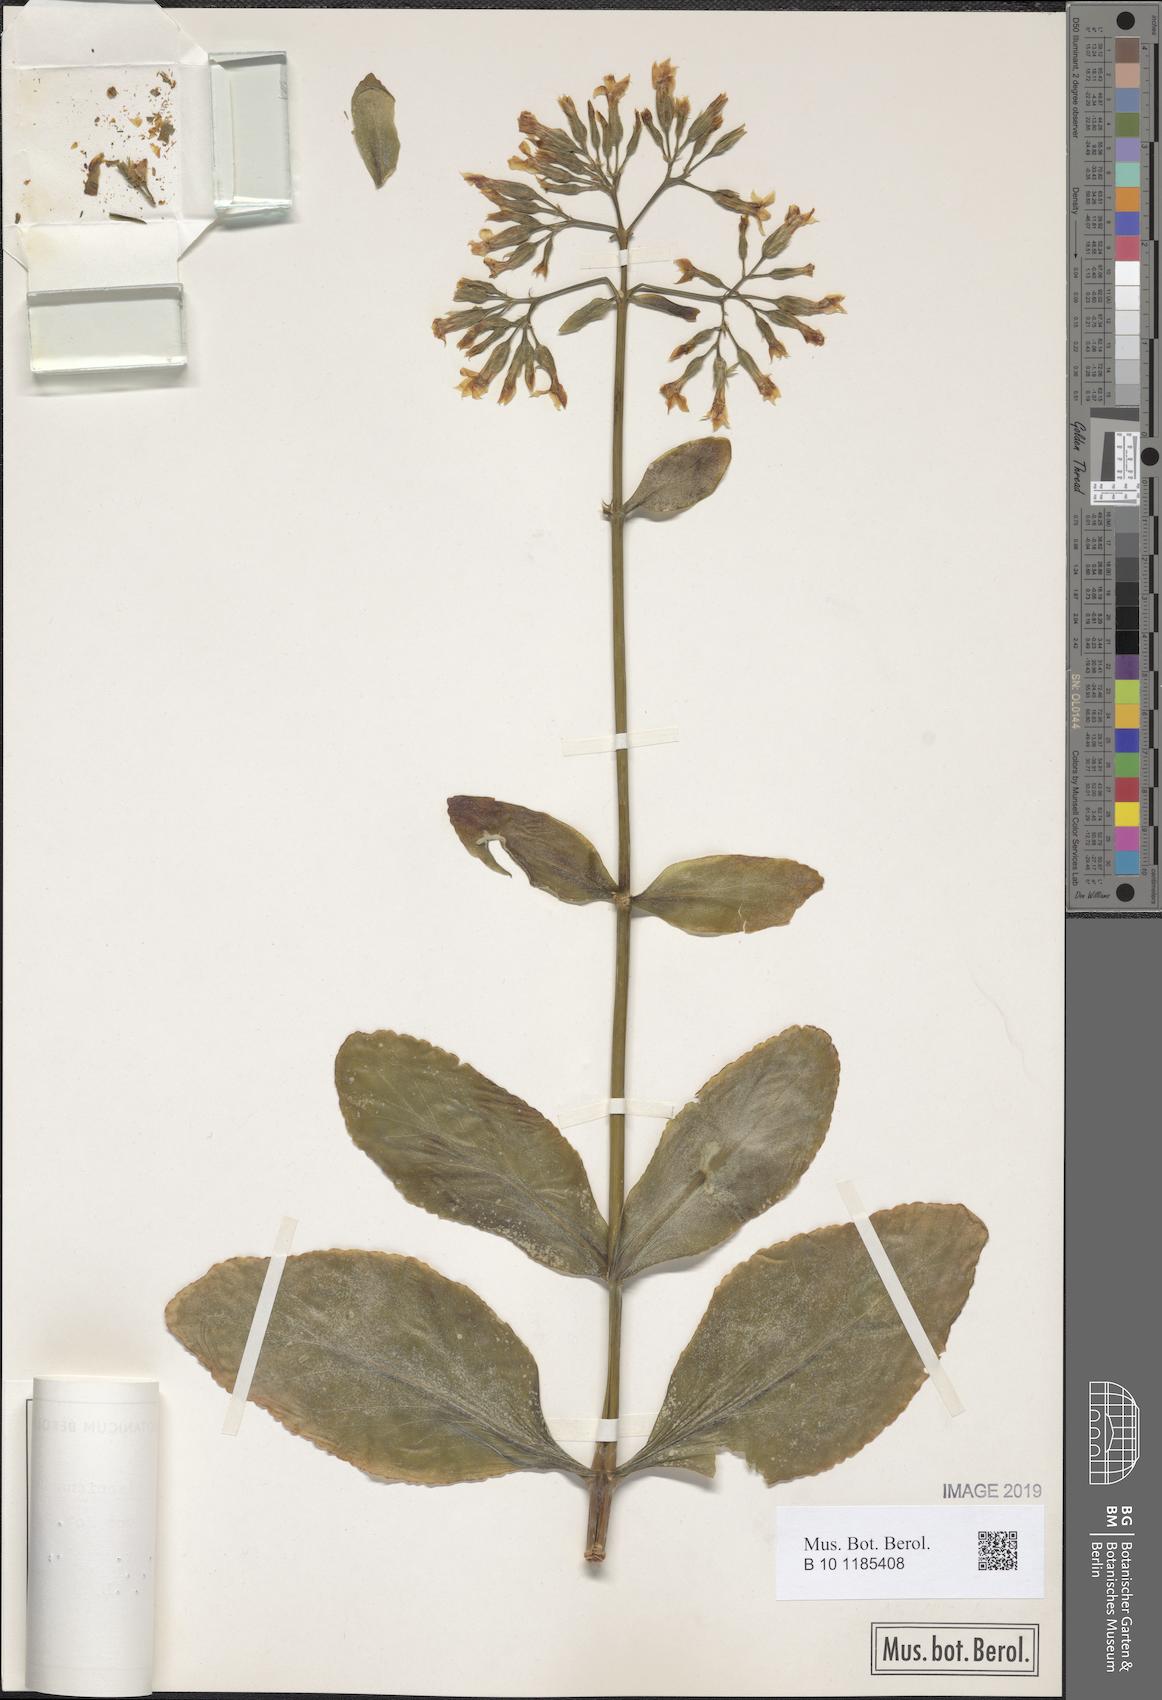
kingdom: Plantae
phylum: Tracheophyta
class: Magnoliopsida
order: Saxifragales
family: Crassulaceae
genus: Kalanchoe
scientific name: Kalanchoe integra
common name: Neverdie
